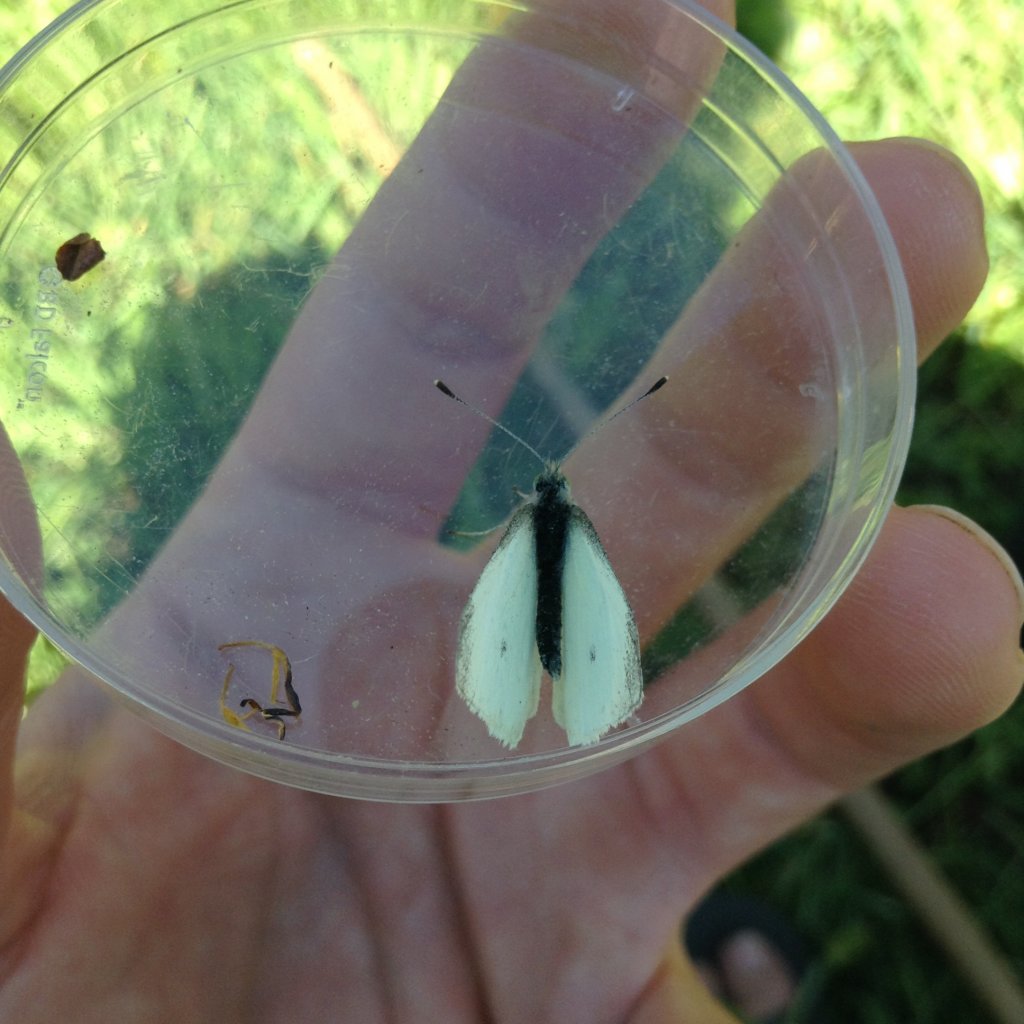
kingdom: Animalia
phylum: Arthropoda
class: Insecta
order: Lepidoptera
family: Pieridae
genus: Pieris
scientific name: Pieris rapae
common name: Cabbage White
